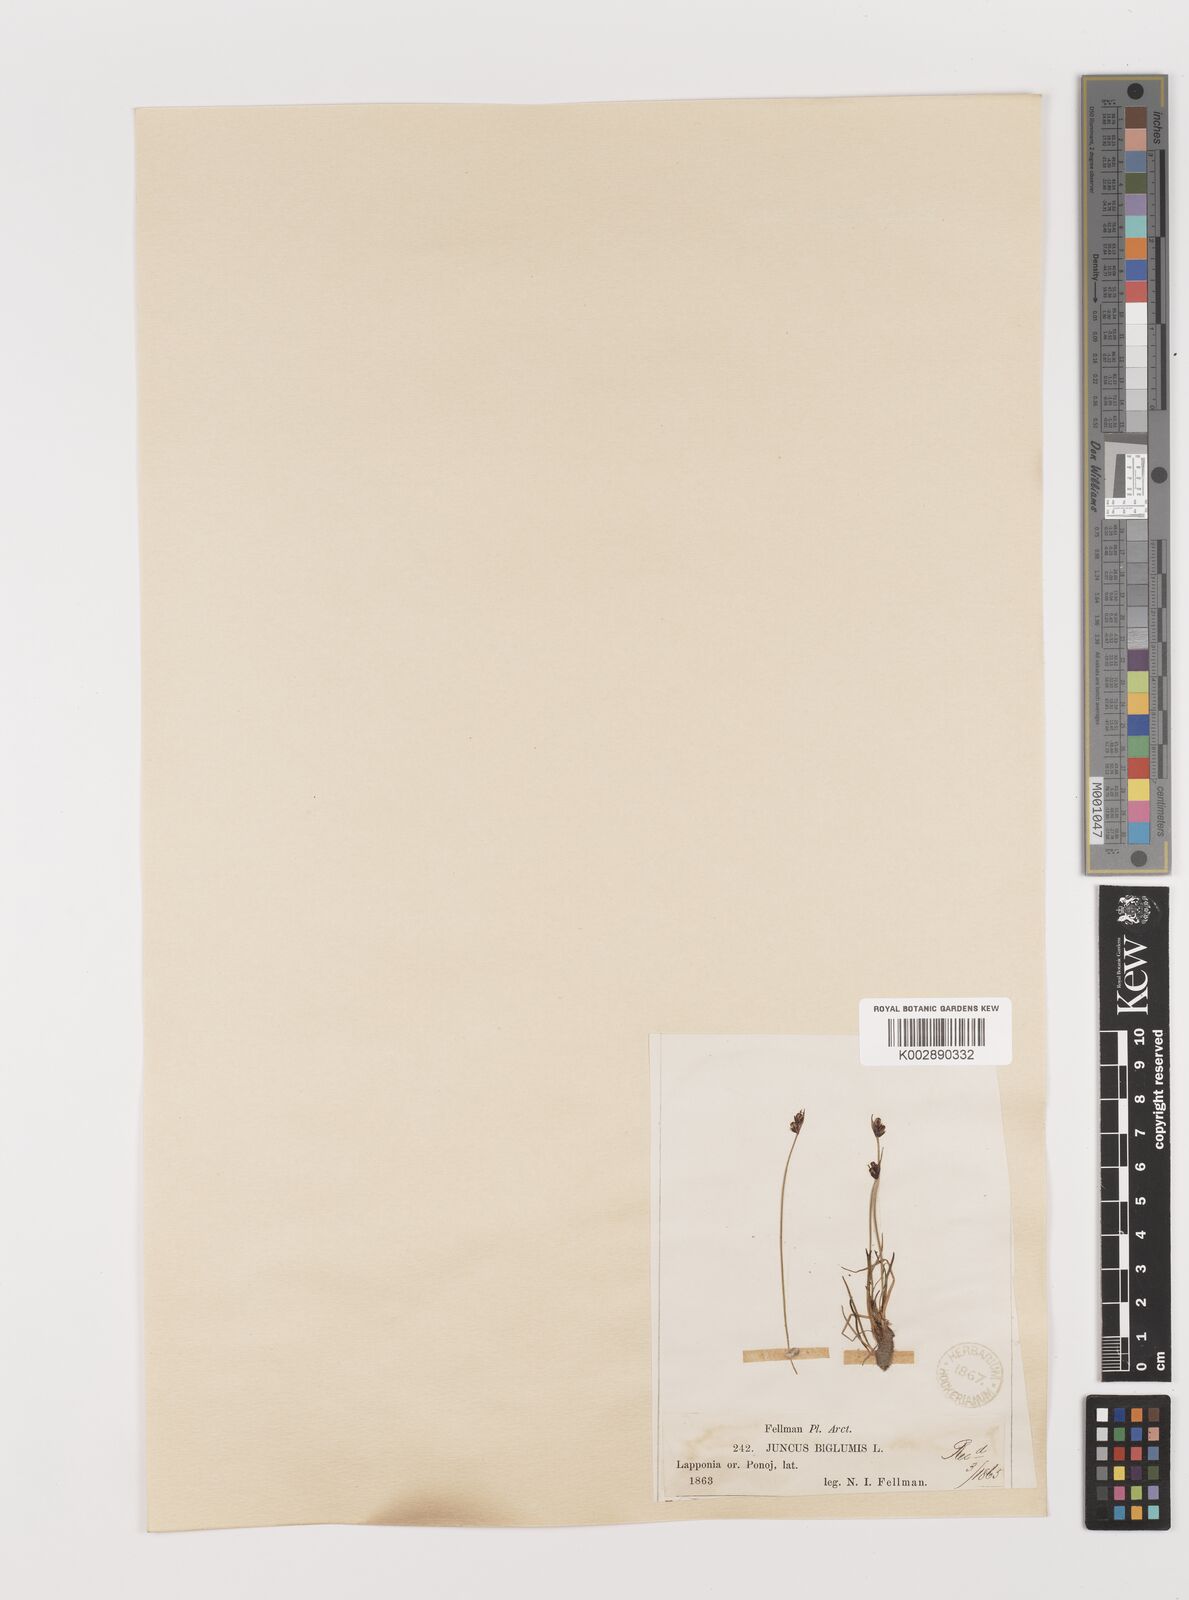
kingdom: Plantae
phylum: Tracheophyta
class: Liliopsida
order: Poales
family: Juncaceae
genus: Juncus
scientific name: Juncus biglumis
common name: Two-flowered rush
